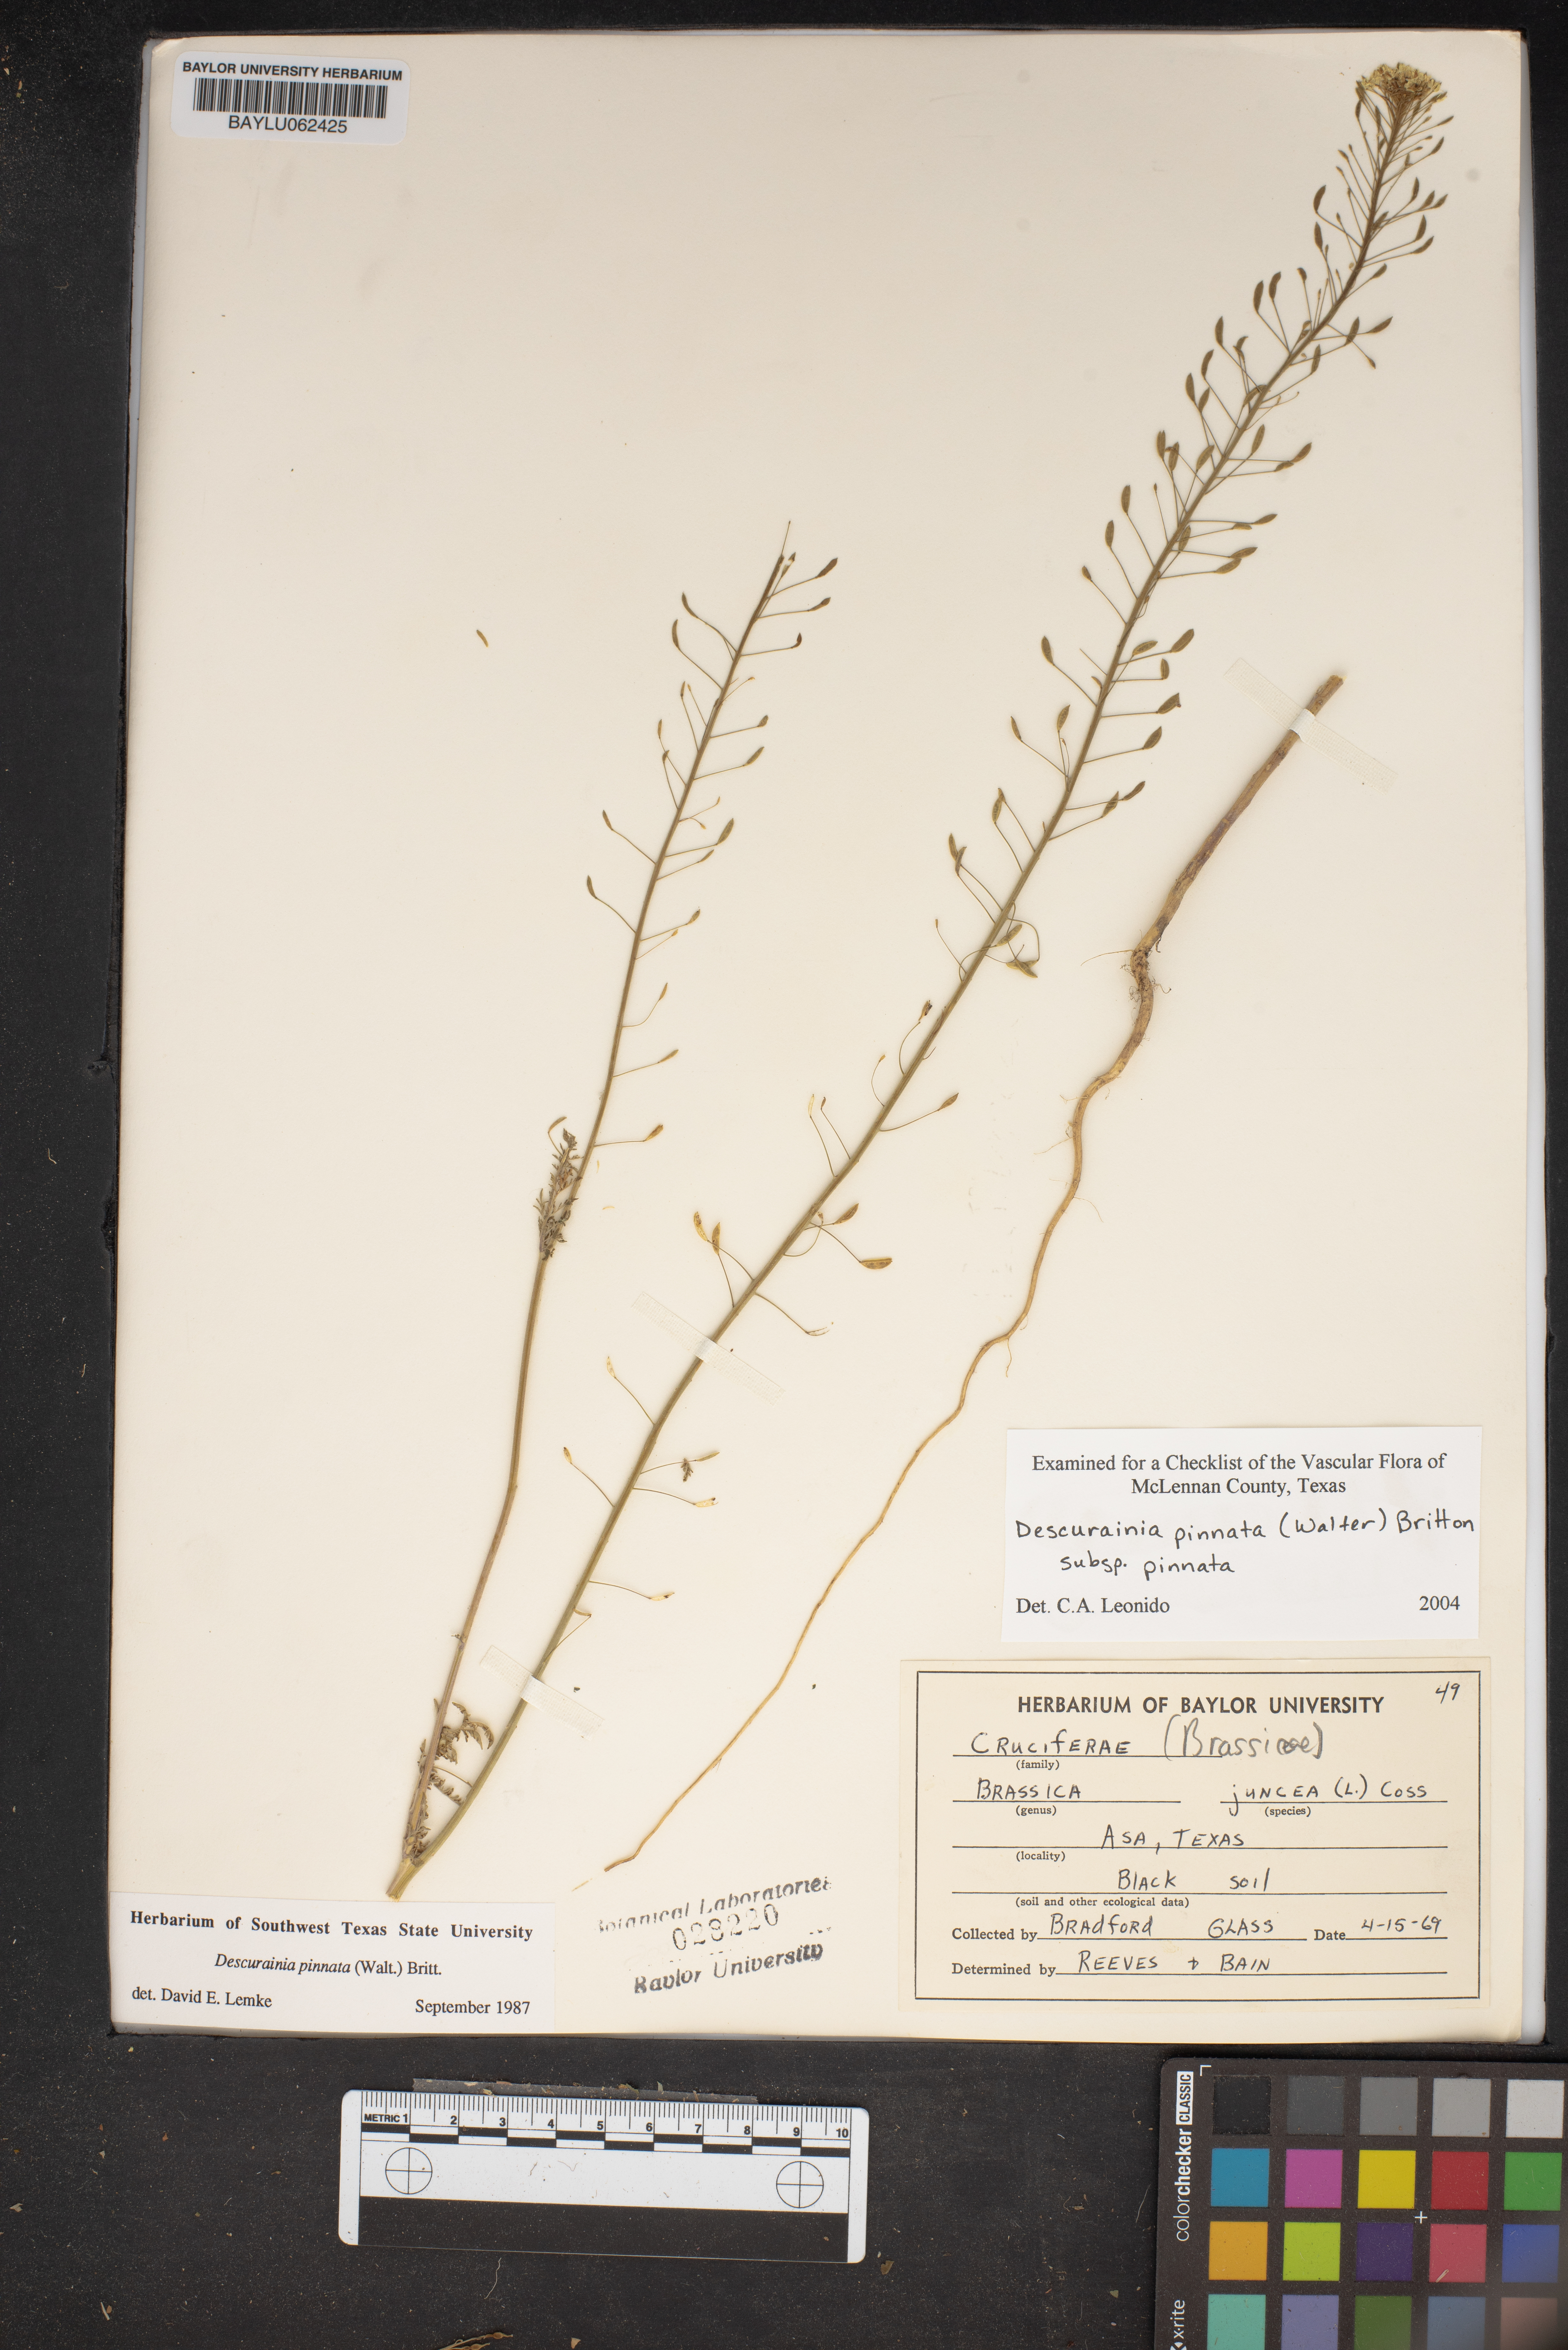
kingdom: Plantae
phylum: Tracheophyta
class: Magnoliopsida
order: Brassicales
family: Brassicaceae
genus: Descurainia
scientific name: Descurainia pinnata
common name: Western tansy mustard
